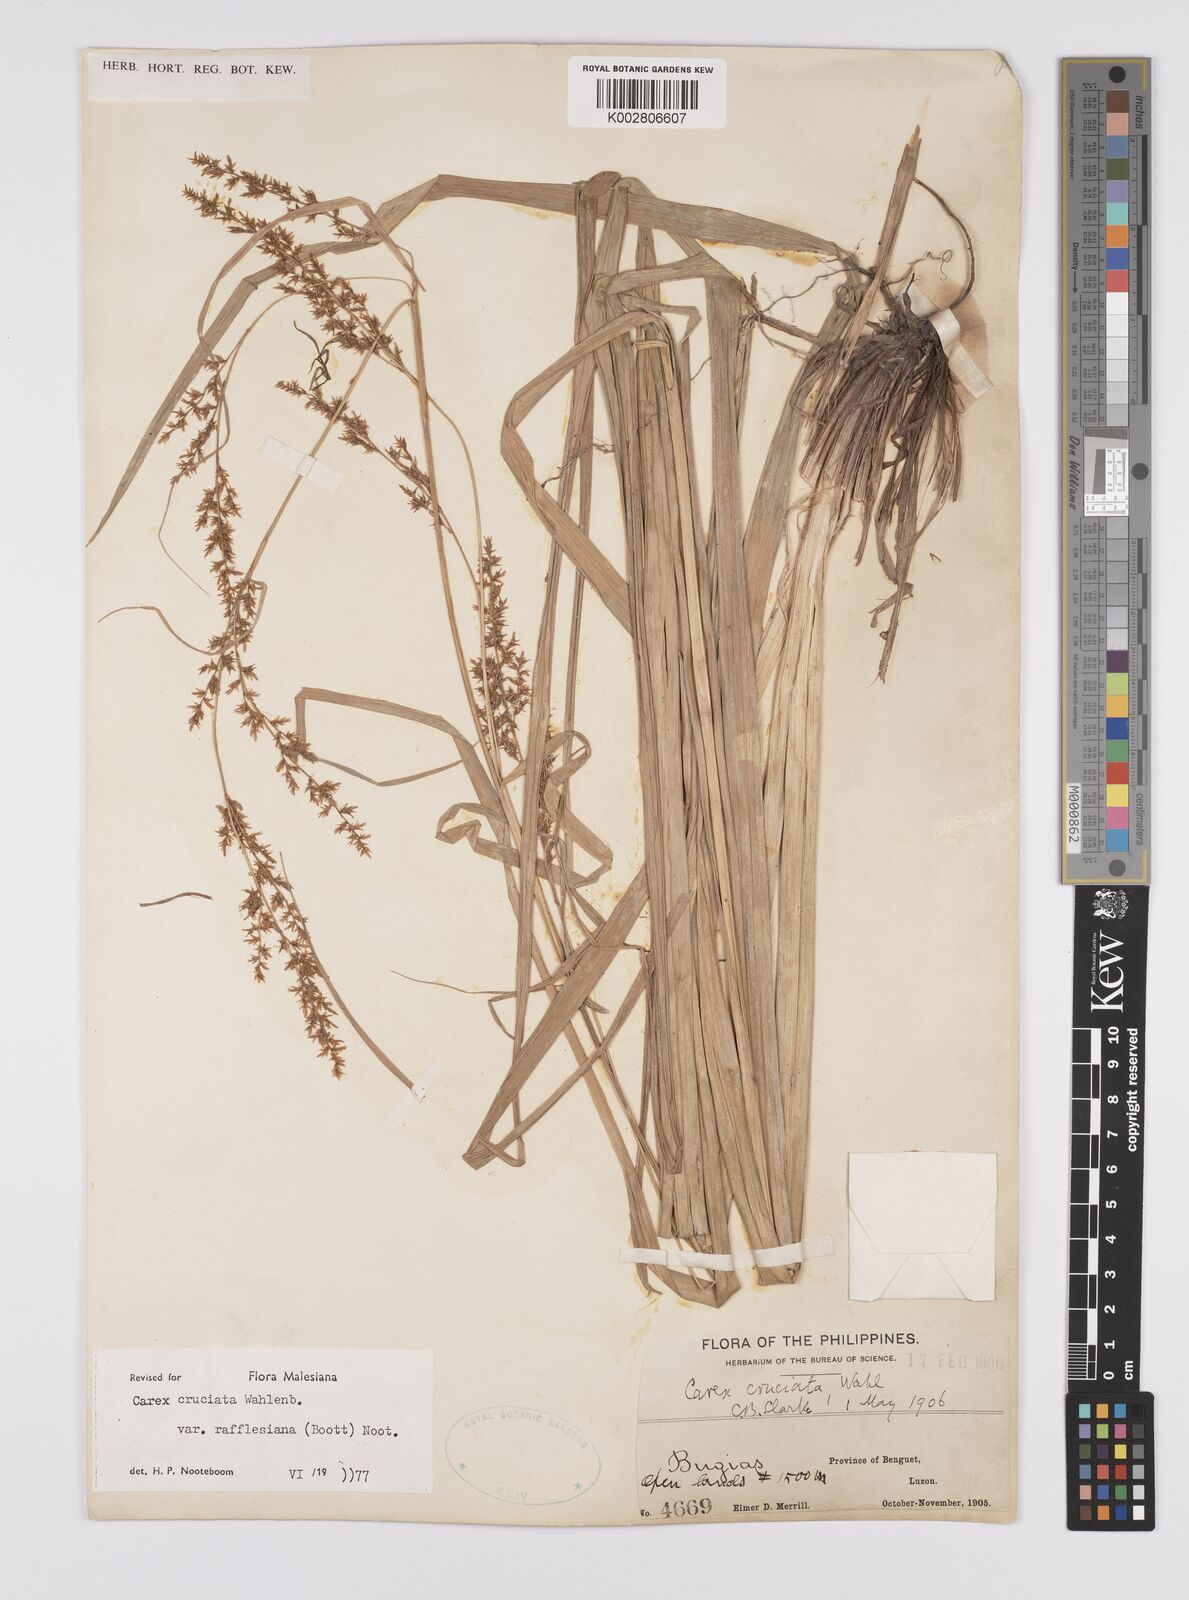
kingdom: Plantae
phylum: Tracheophyta
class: Liliopsida
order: Poales
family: Cyperaceae
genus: Carex
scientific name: Carex rafflesiana
